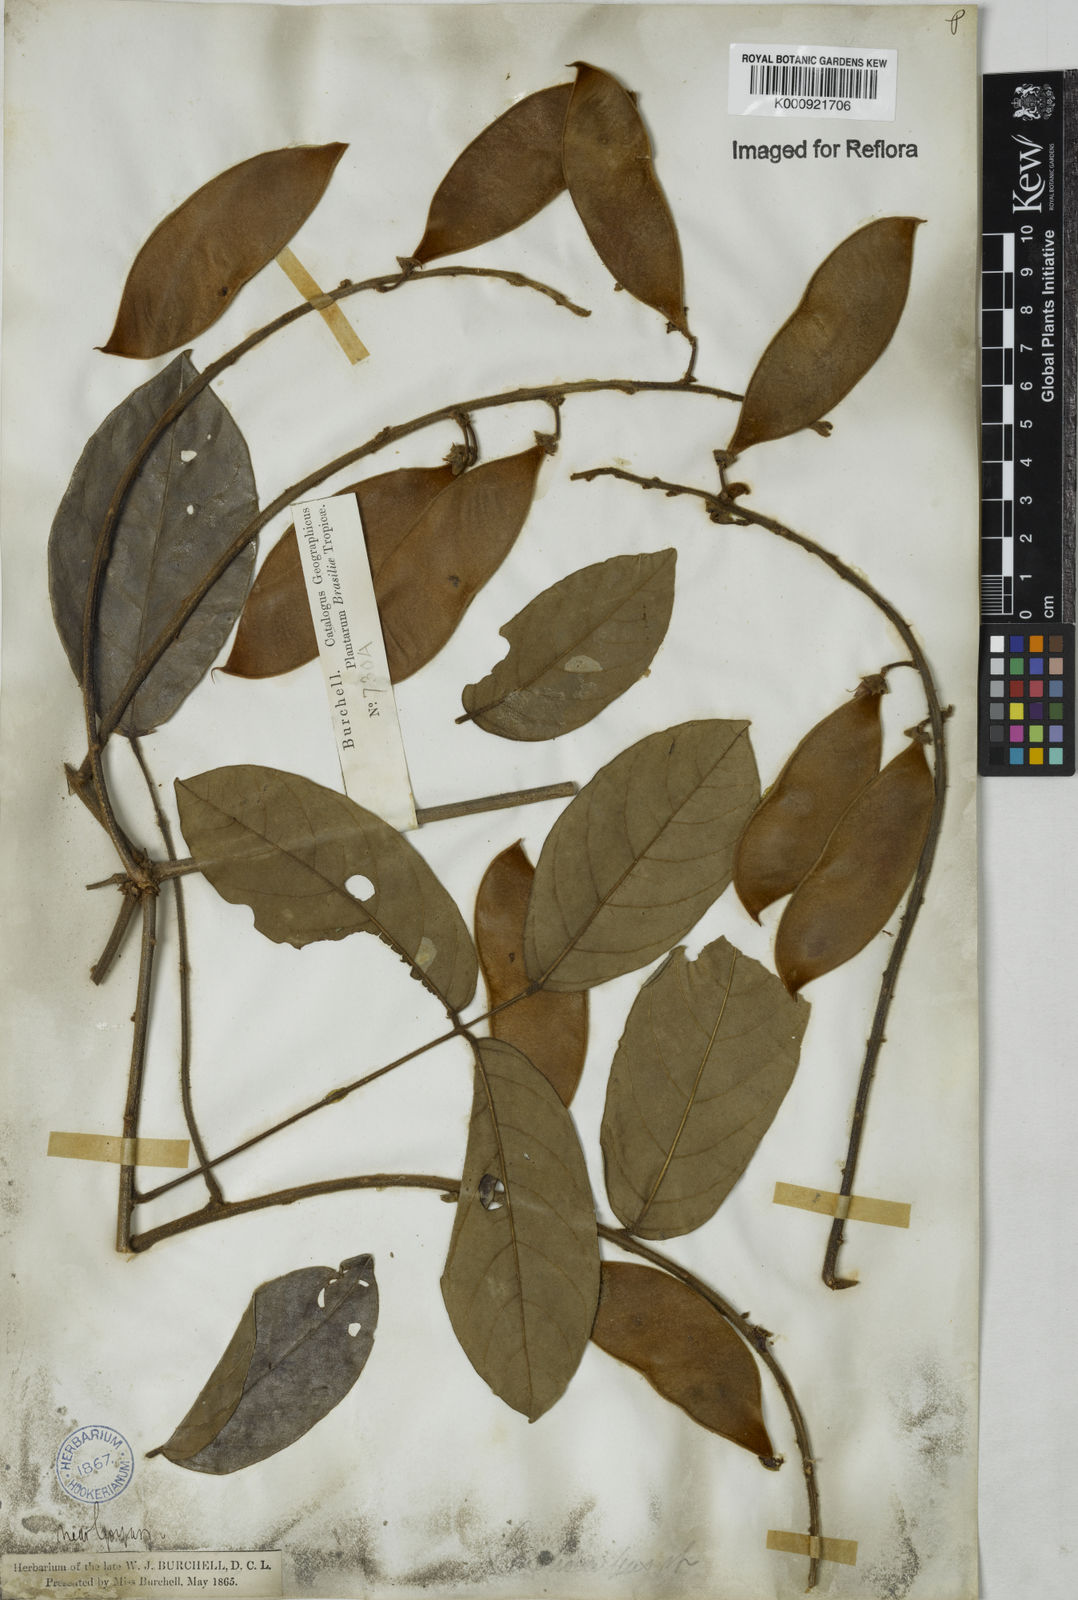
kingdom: Plantae
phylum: Tracheophyta
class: Magnoliopsida
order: Fabales
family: Fabaceae
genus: Lonchocarpus
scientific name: Lonchocarpus
